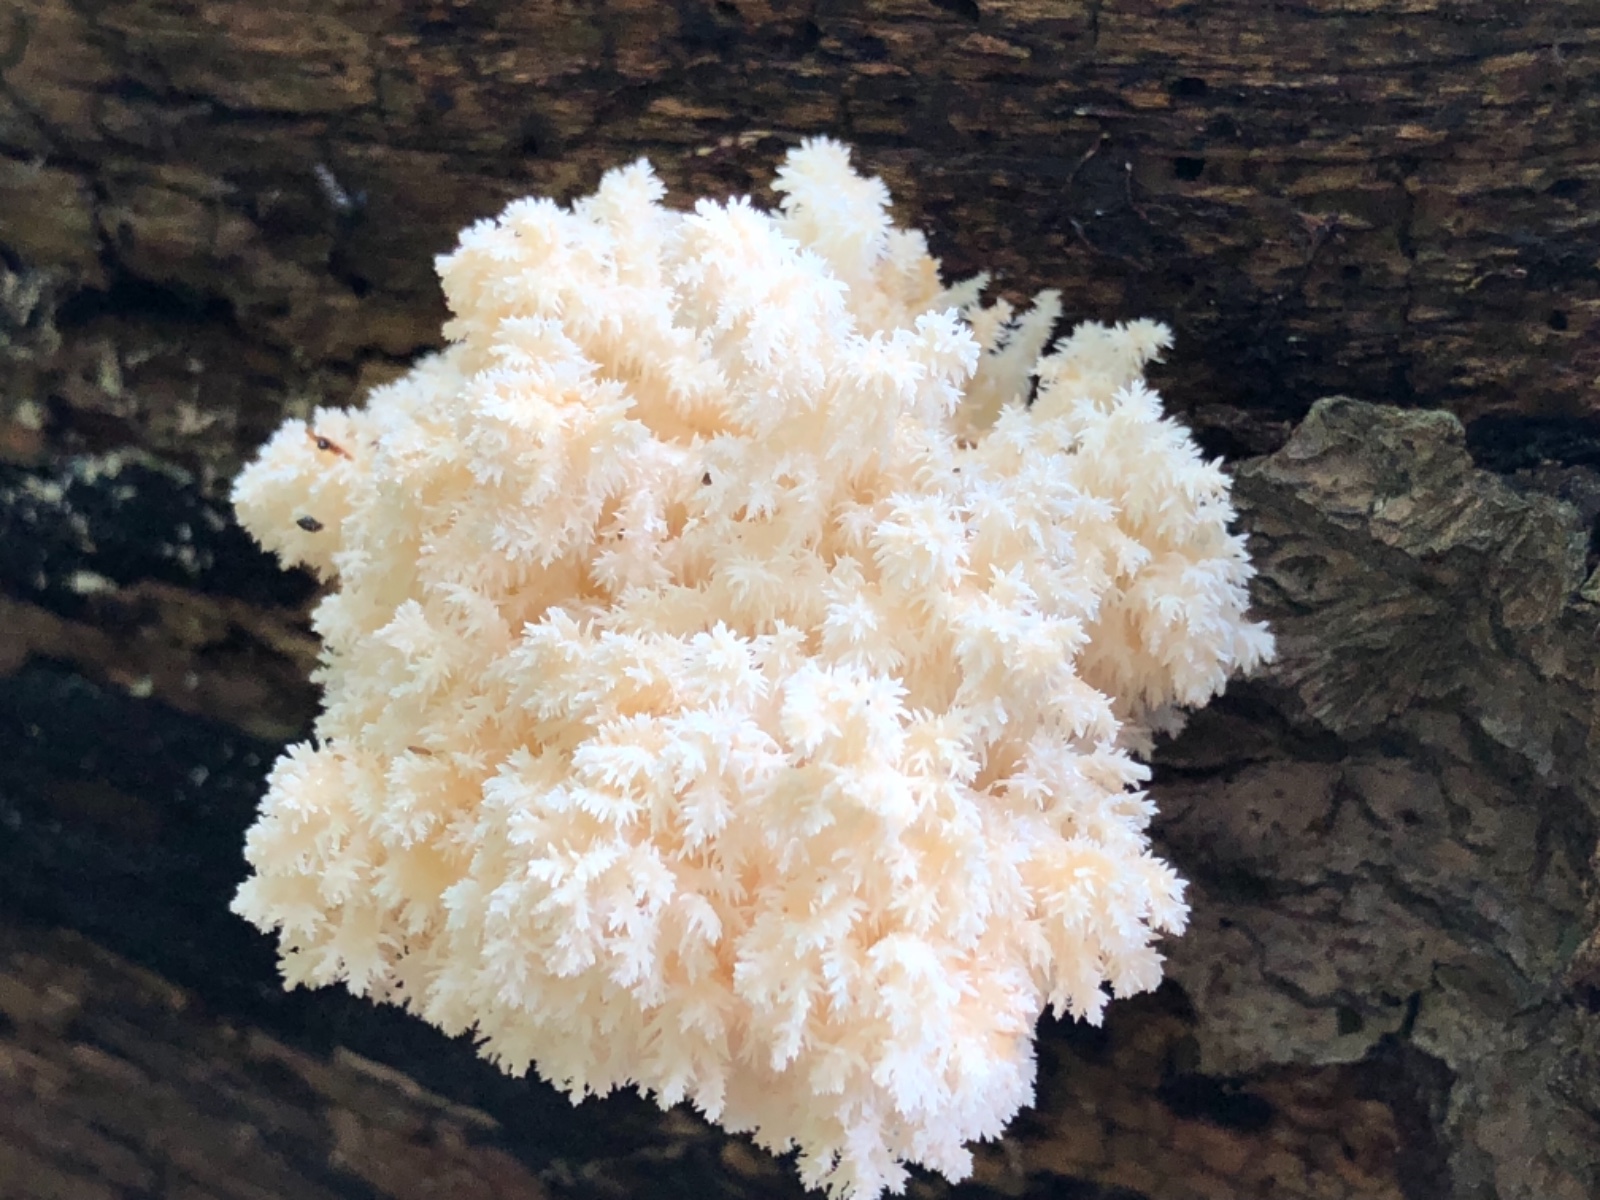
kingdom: Fungi
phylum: Basidiomycota
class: Agaricomycetes
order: Russulales
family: Hericiaceae
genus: Hericium
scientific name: Hericium coralloides
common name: koralpigsvamp
